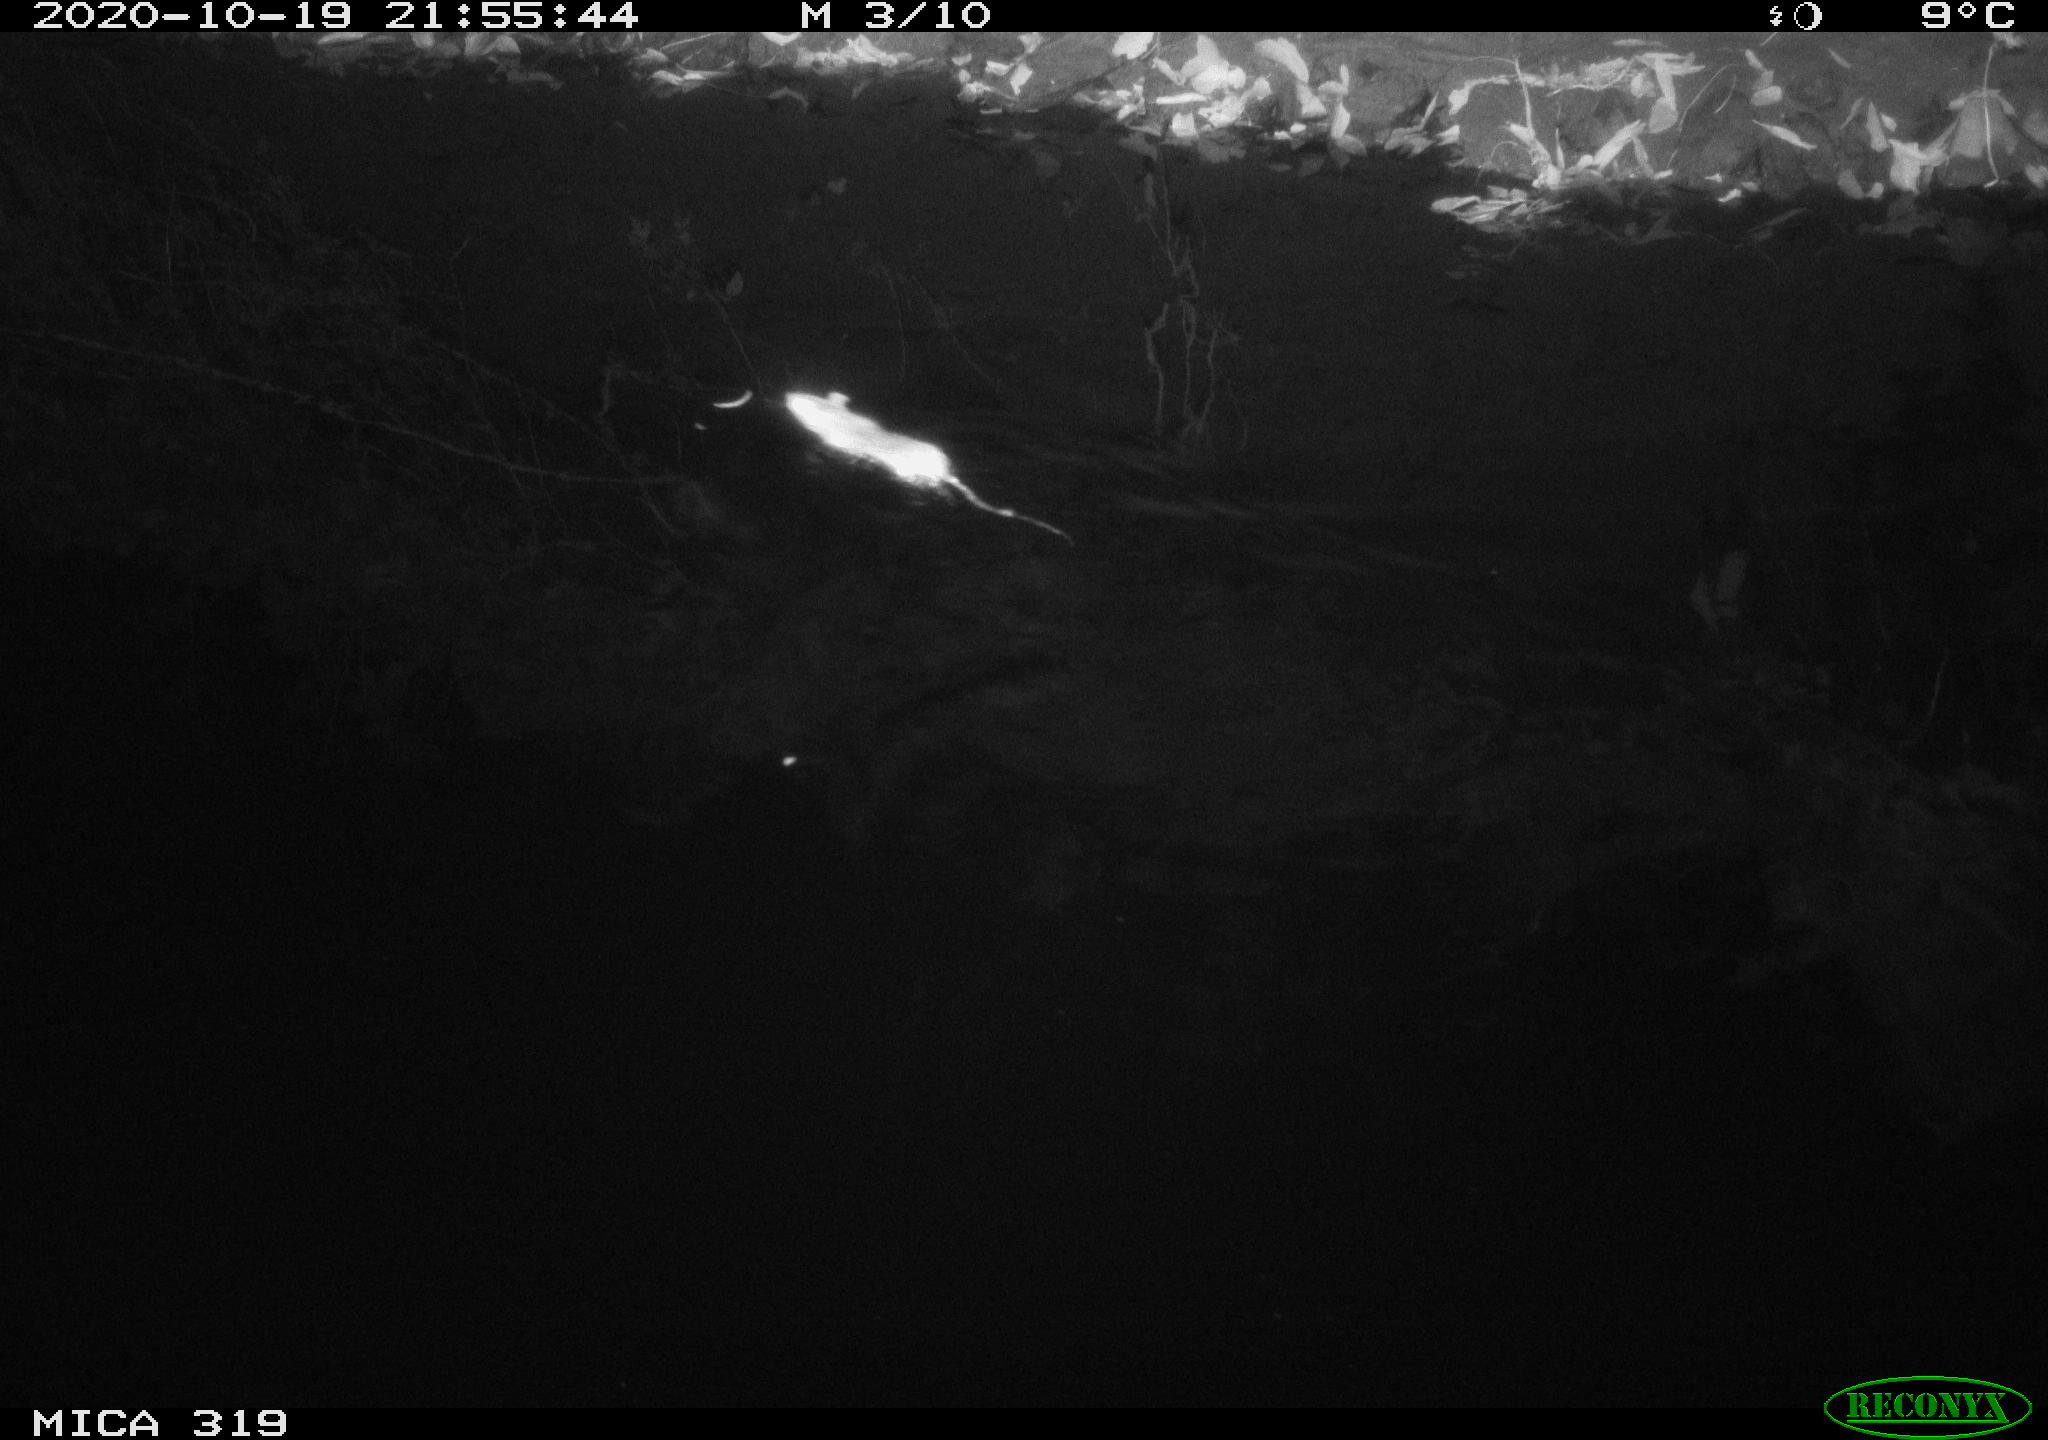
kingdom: Animalia
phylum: Chordata
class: Mammalia
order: Rodentia
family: Muridae
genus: Rattus
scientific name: Rattus norvegicus
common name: Brown rat
